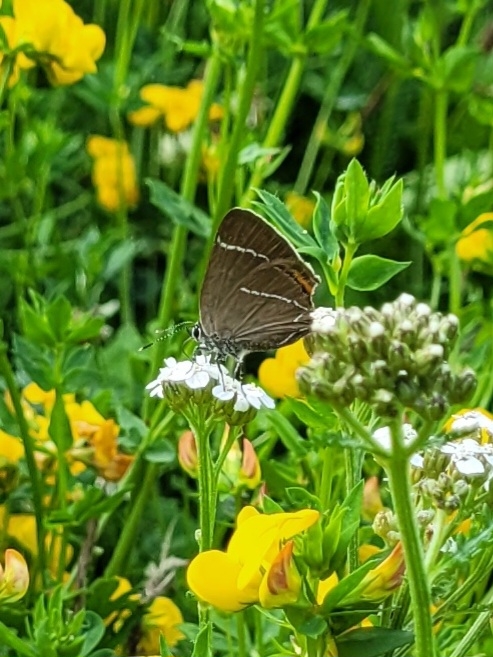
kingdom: Animalia
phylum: Arthropoda
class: Insecta
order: Lepidoptera
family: Lycaenidae
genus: Satyrium
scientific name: Satyrium w-album
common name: Det hvide W
